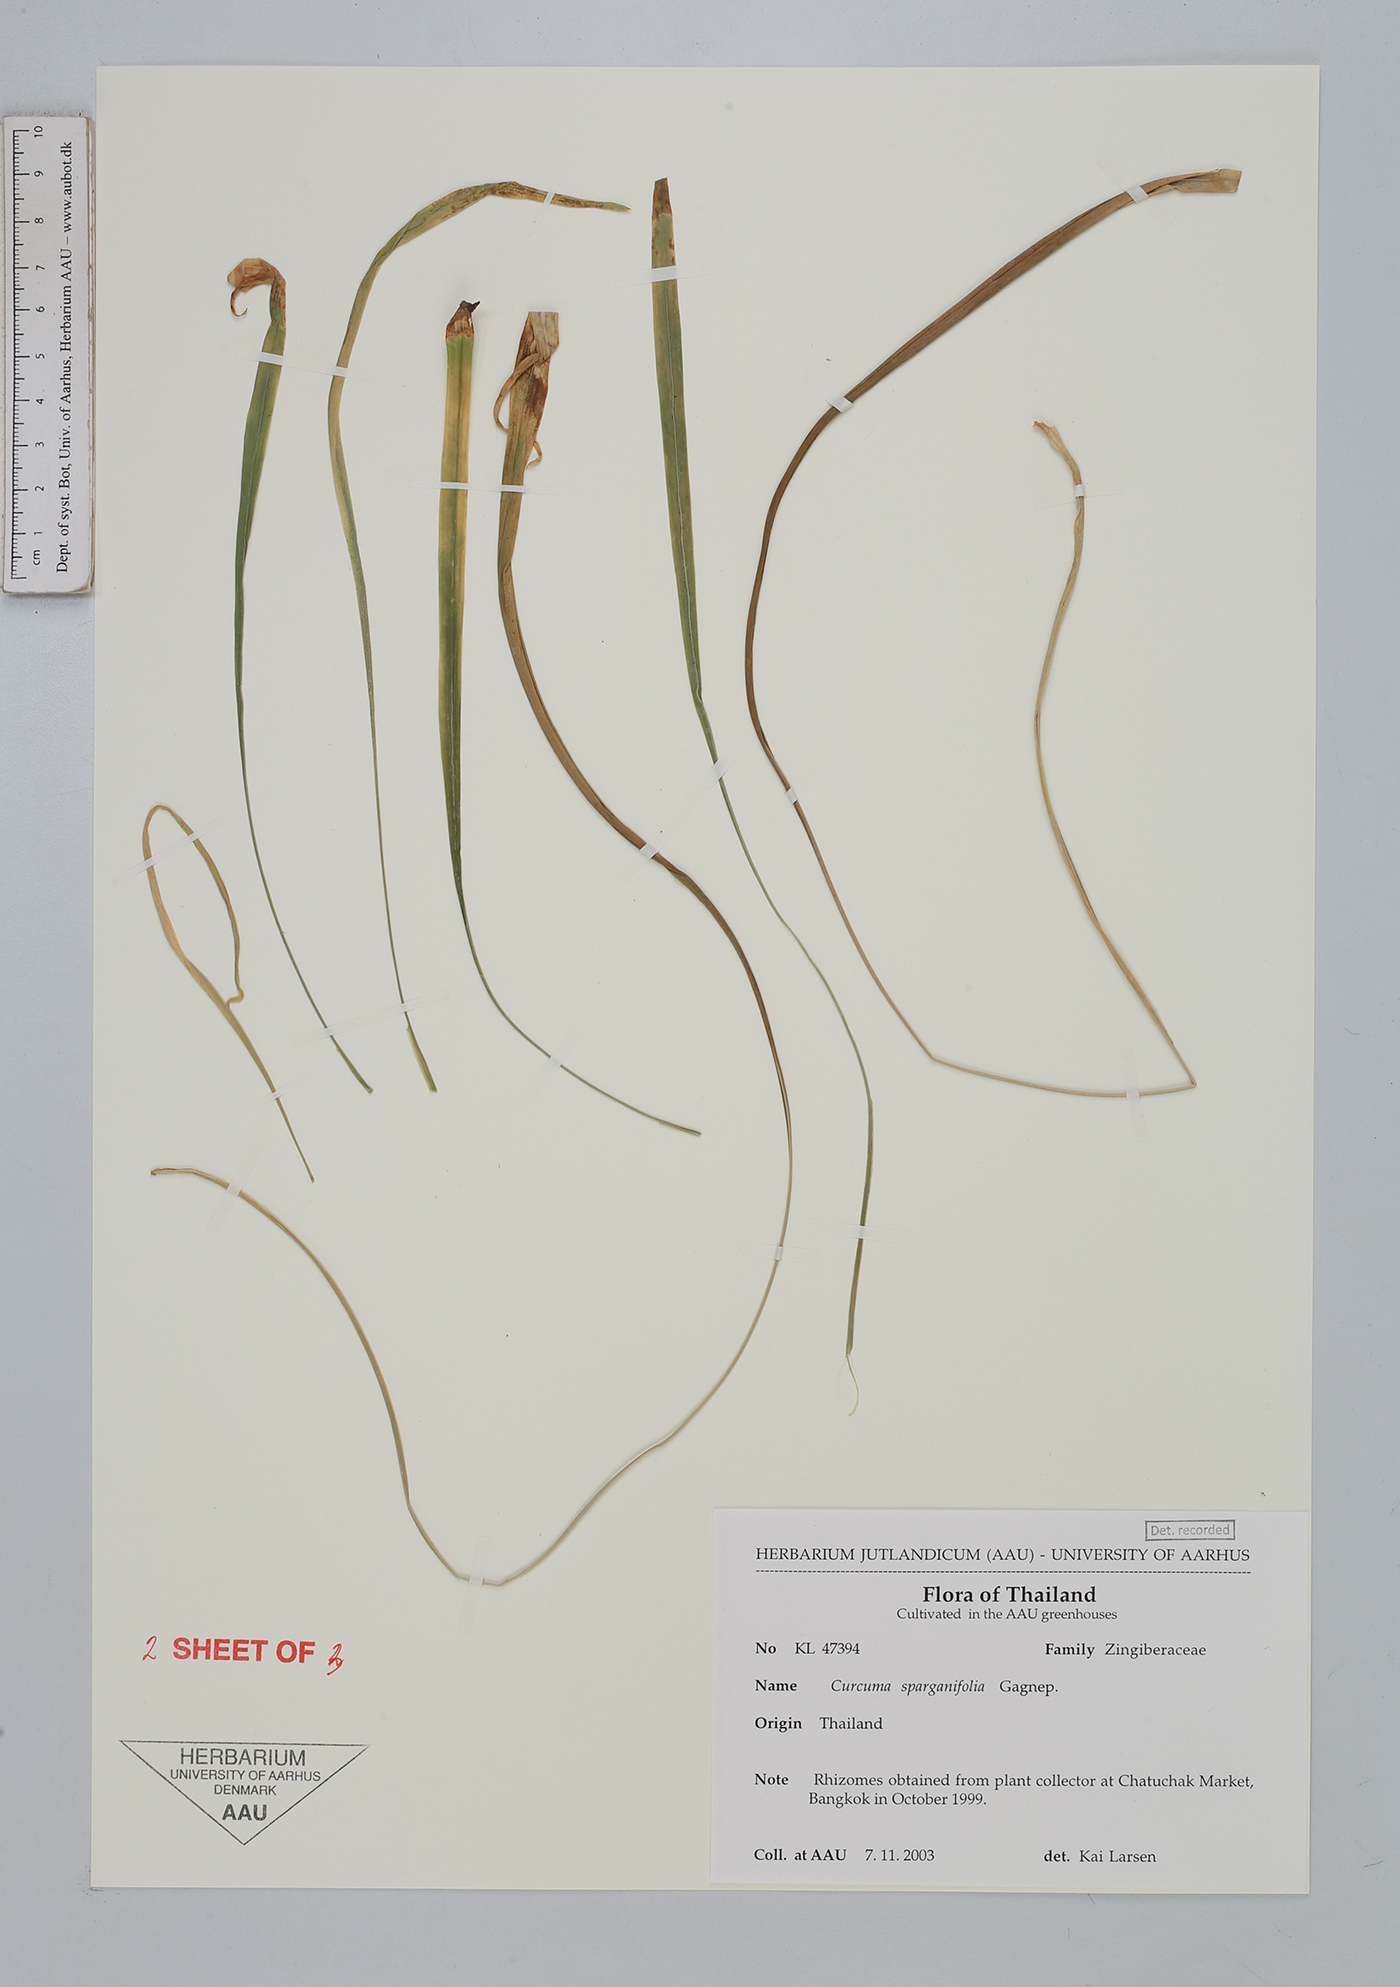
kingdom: Plantae
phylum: Tracheophyta
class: Liliopsida
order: Zingiberales
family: Zingiberaceae
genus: Curcuma
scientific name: Curcuma sparganiifolia
